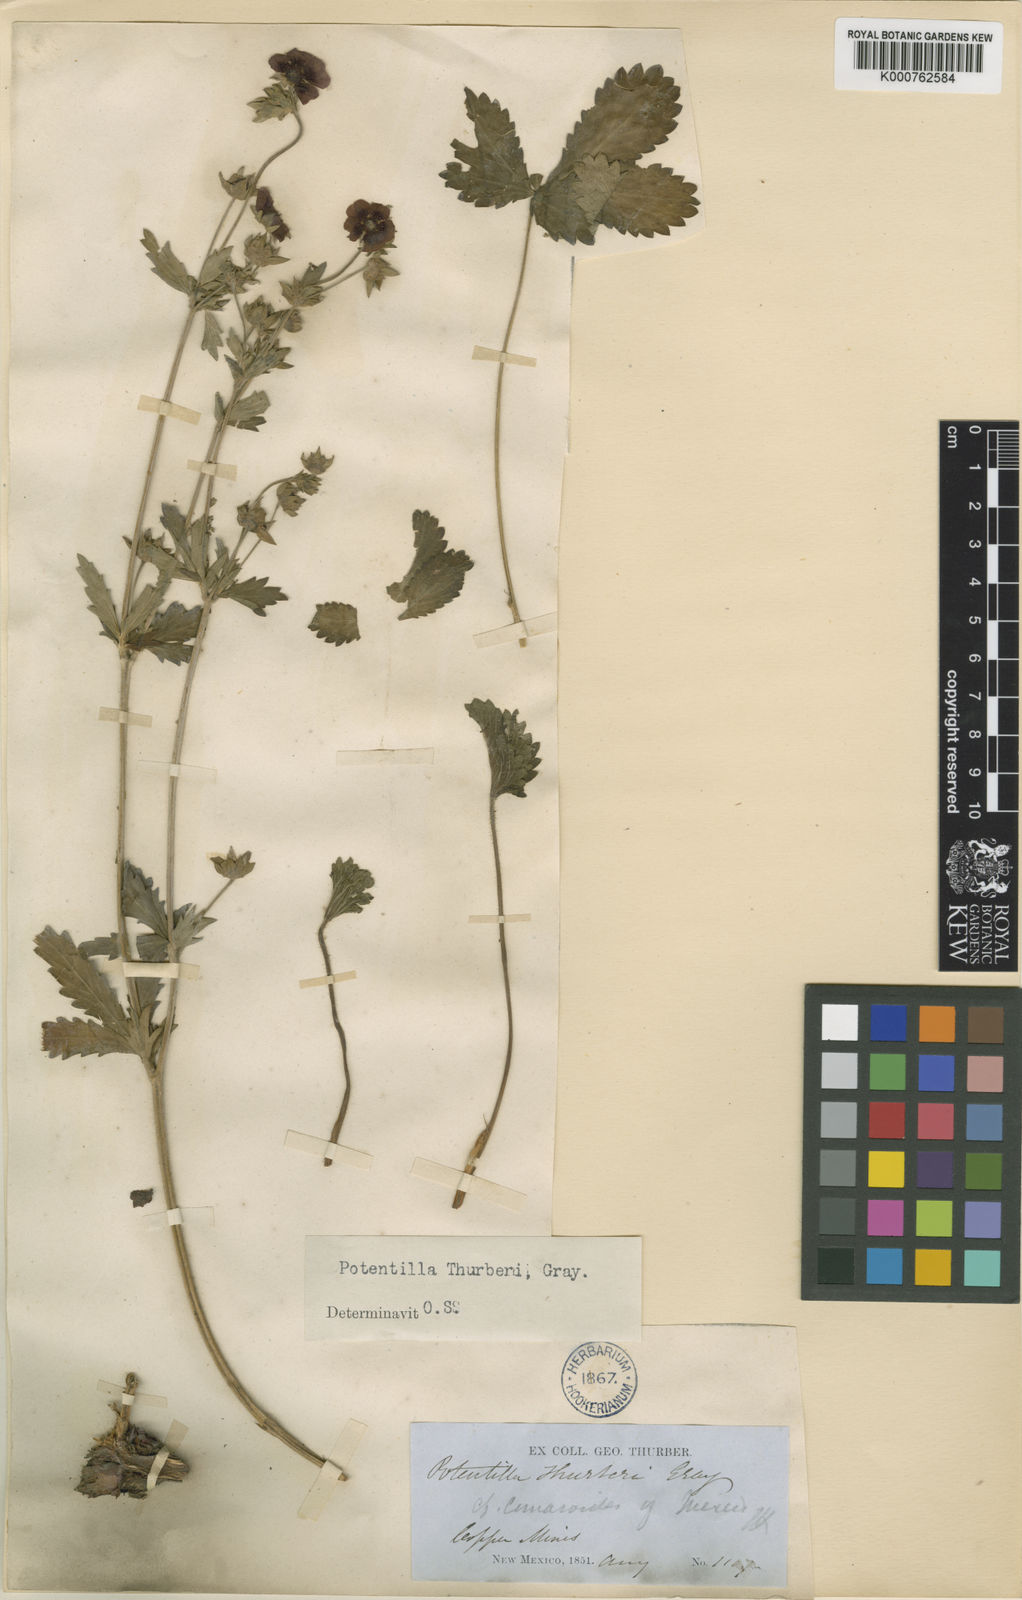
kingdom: Plantae
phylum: Tracheophyta
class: Magnoliopsida
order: Rosales
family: Rosaceae
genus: Potentilla
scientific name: Potentilla thurberi
